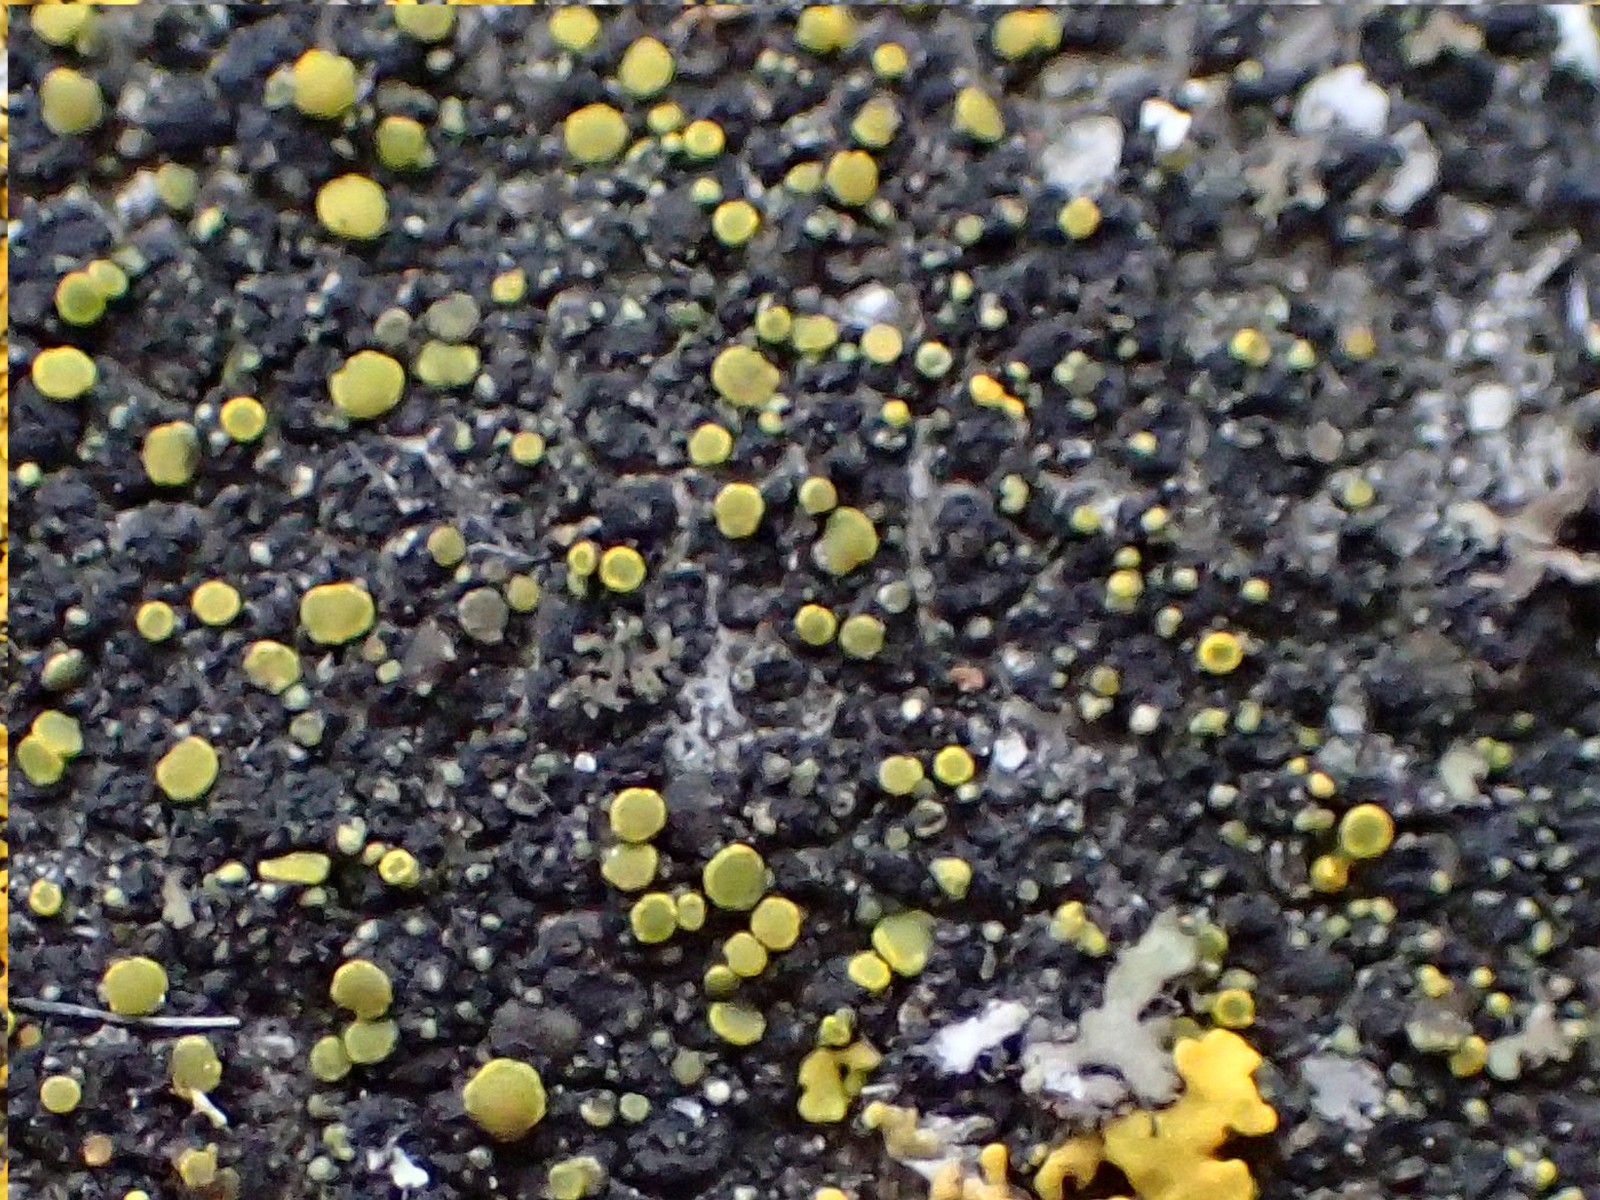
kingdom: Fungi
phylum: Ascomycota
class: Candelariomycetes
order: Candelariales
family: Candelariaceae
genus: Candelariella
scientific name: Candelariella aurella
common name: liden æggeblommelav
